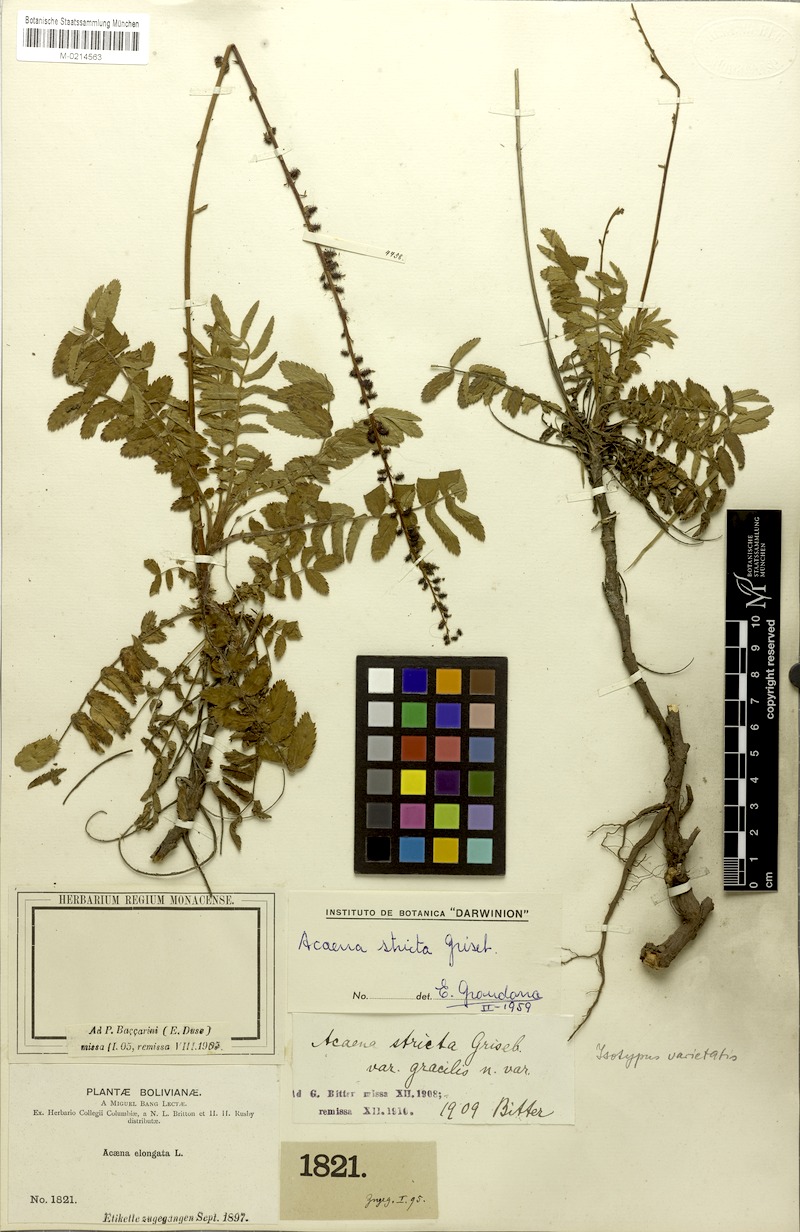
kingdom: Plantae
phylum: Tracheophyta
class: Magnoliopsida
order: Rosales
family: Rosaceae
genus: Acaena
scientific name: Acaena stricta
